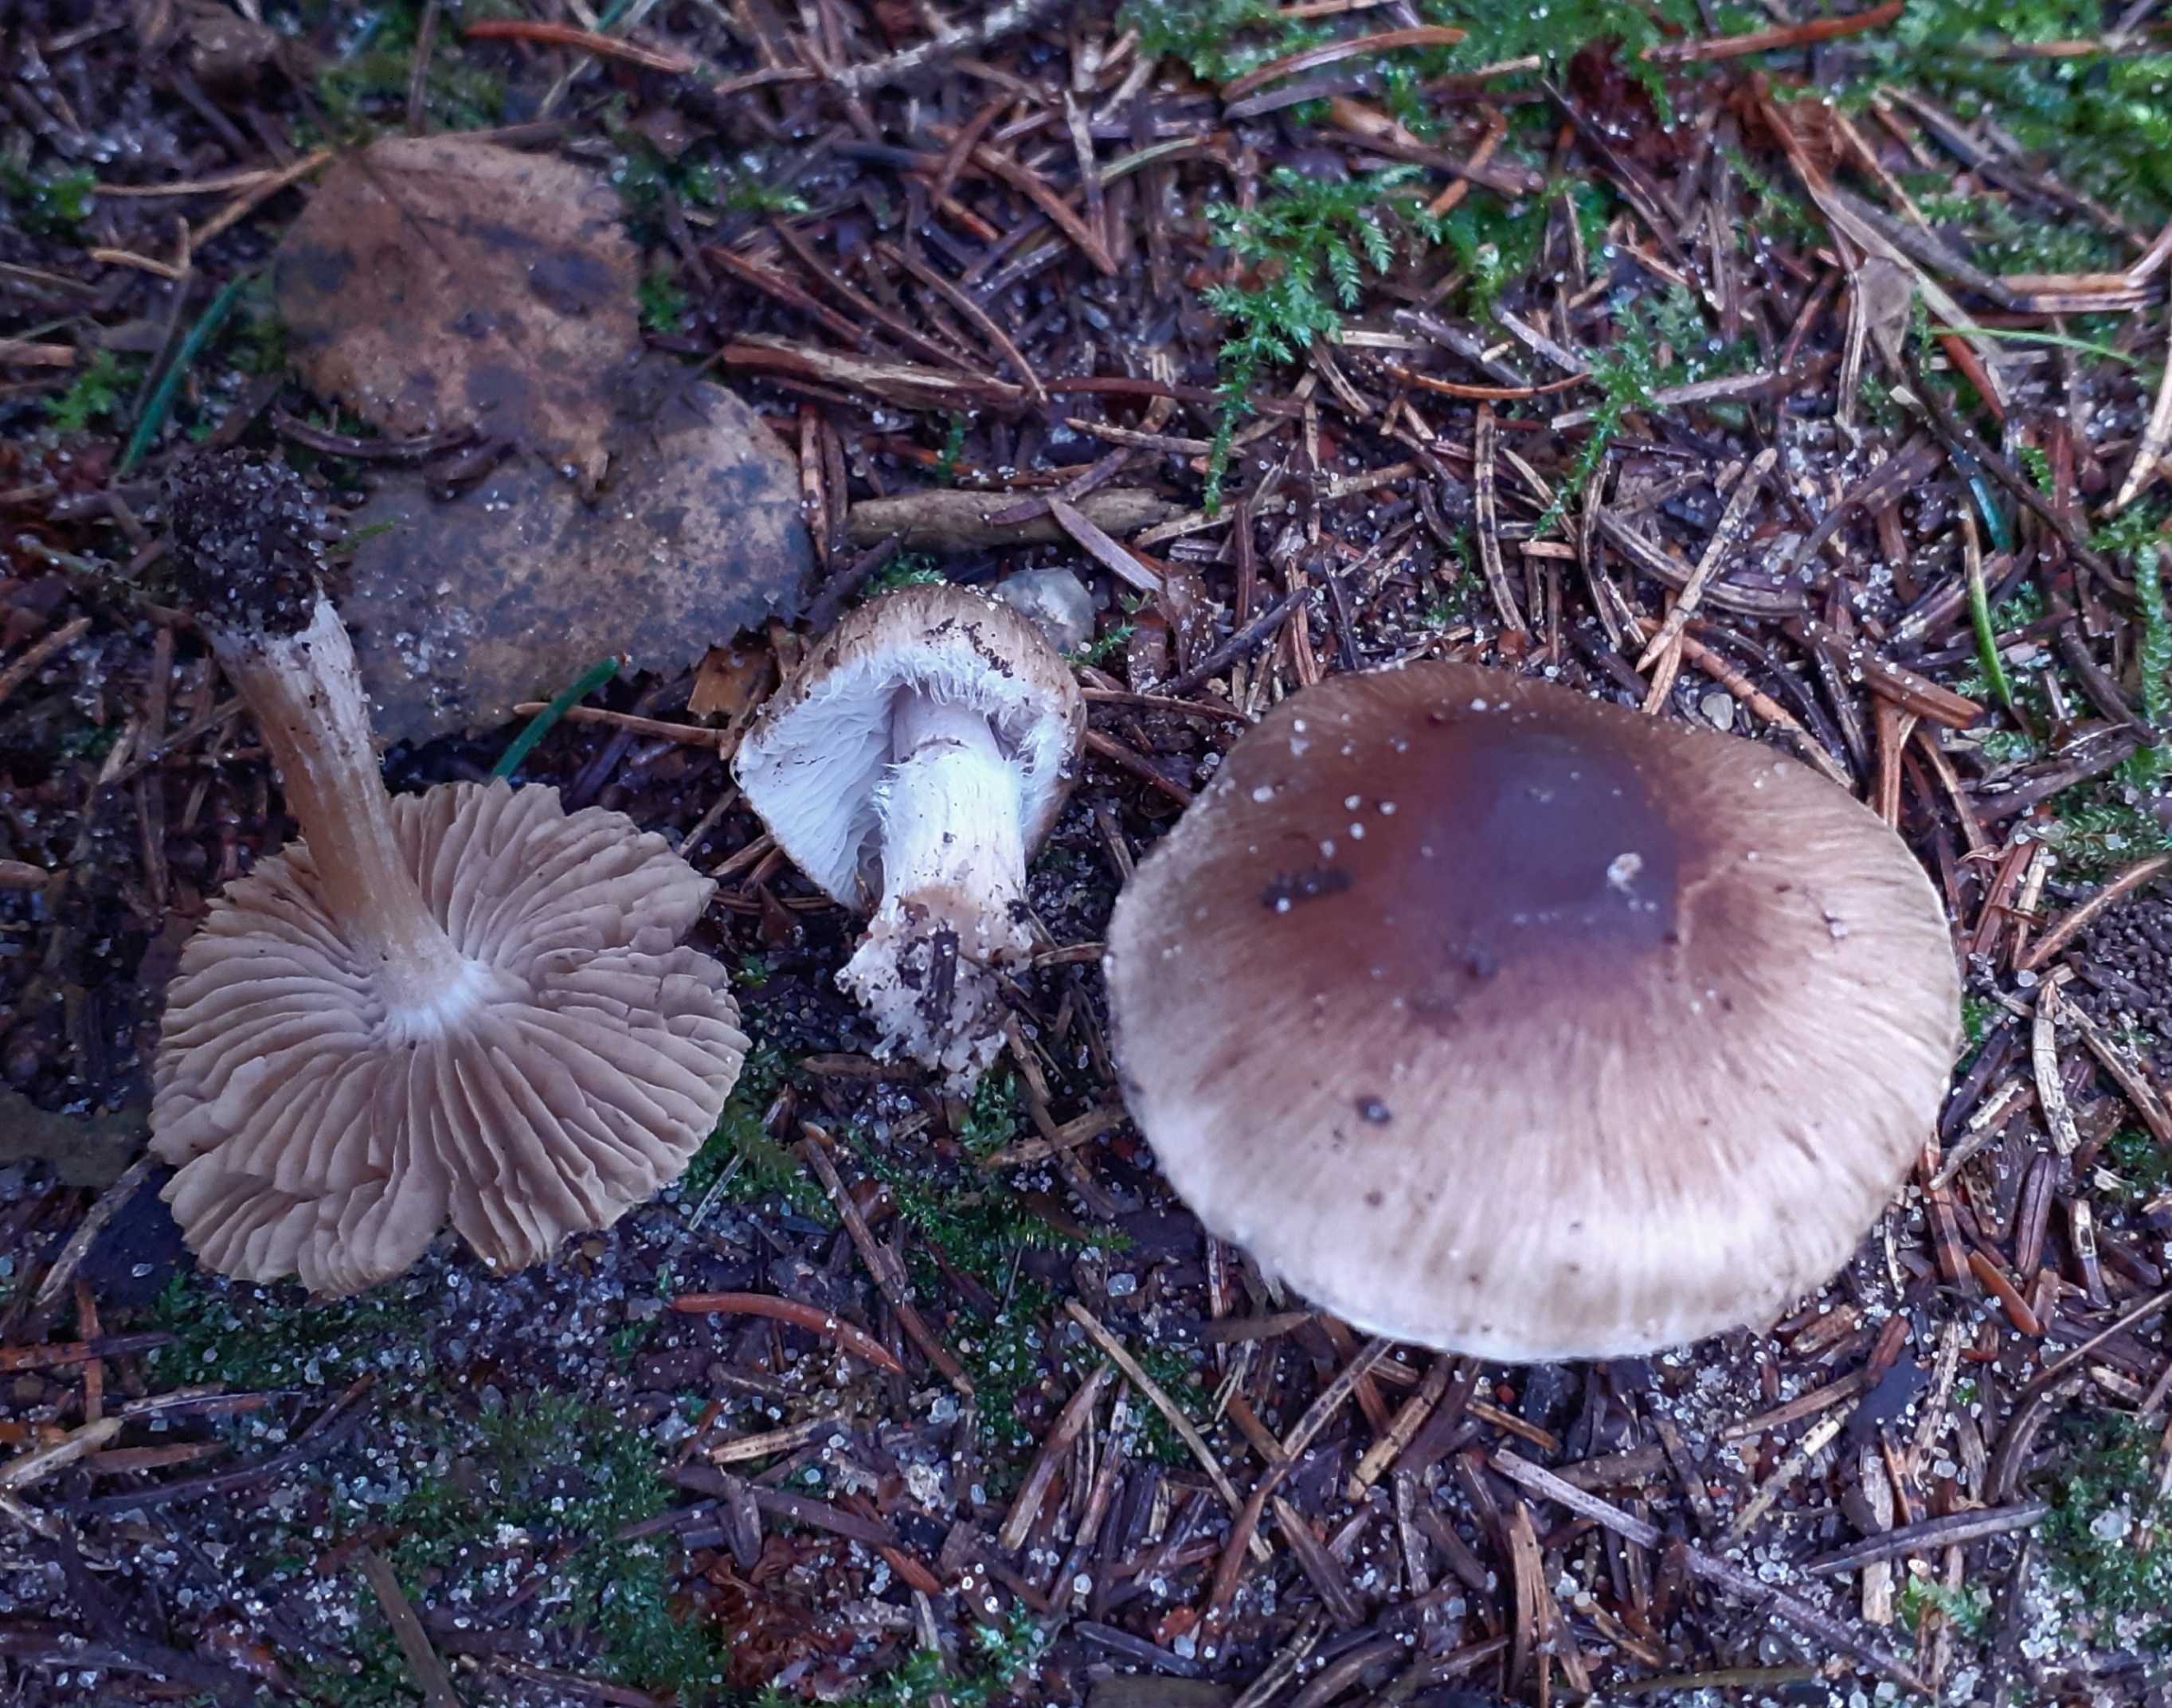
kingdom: Fungi
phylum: Basidiomycota
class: Agaricomycetes
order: Agaricales
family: Inocybaceae
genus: Inocybe
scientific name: Inocybe
